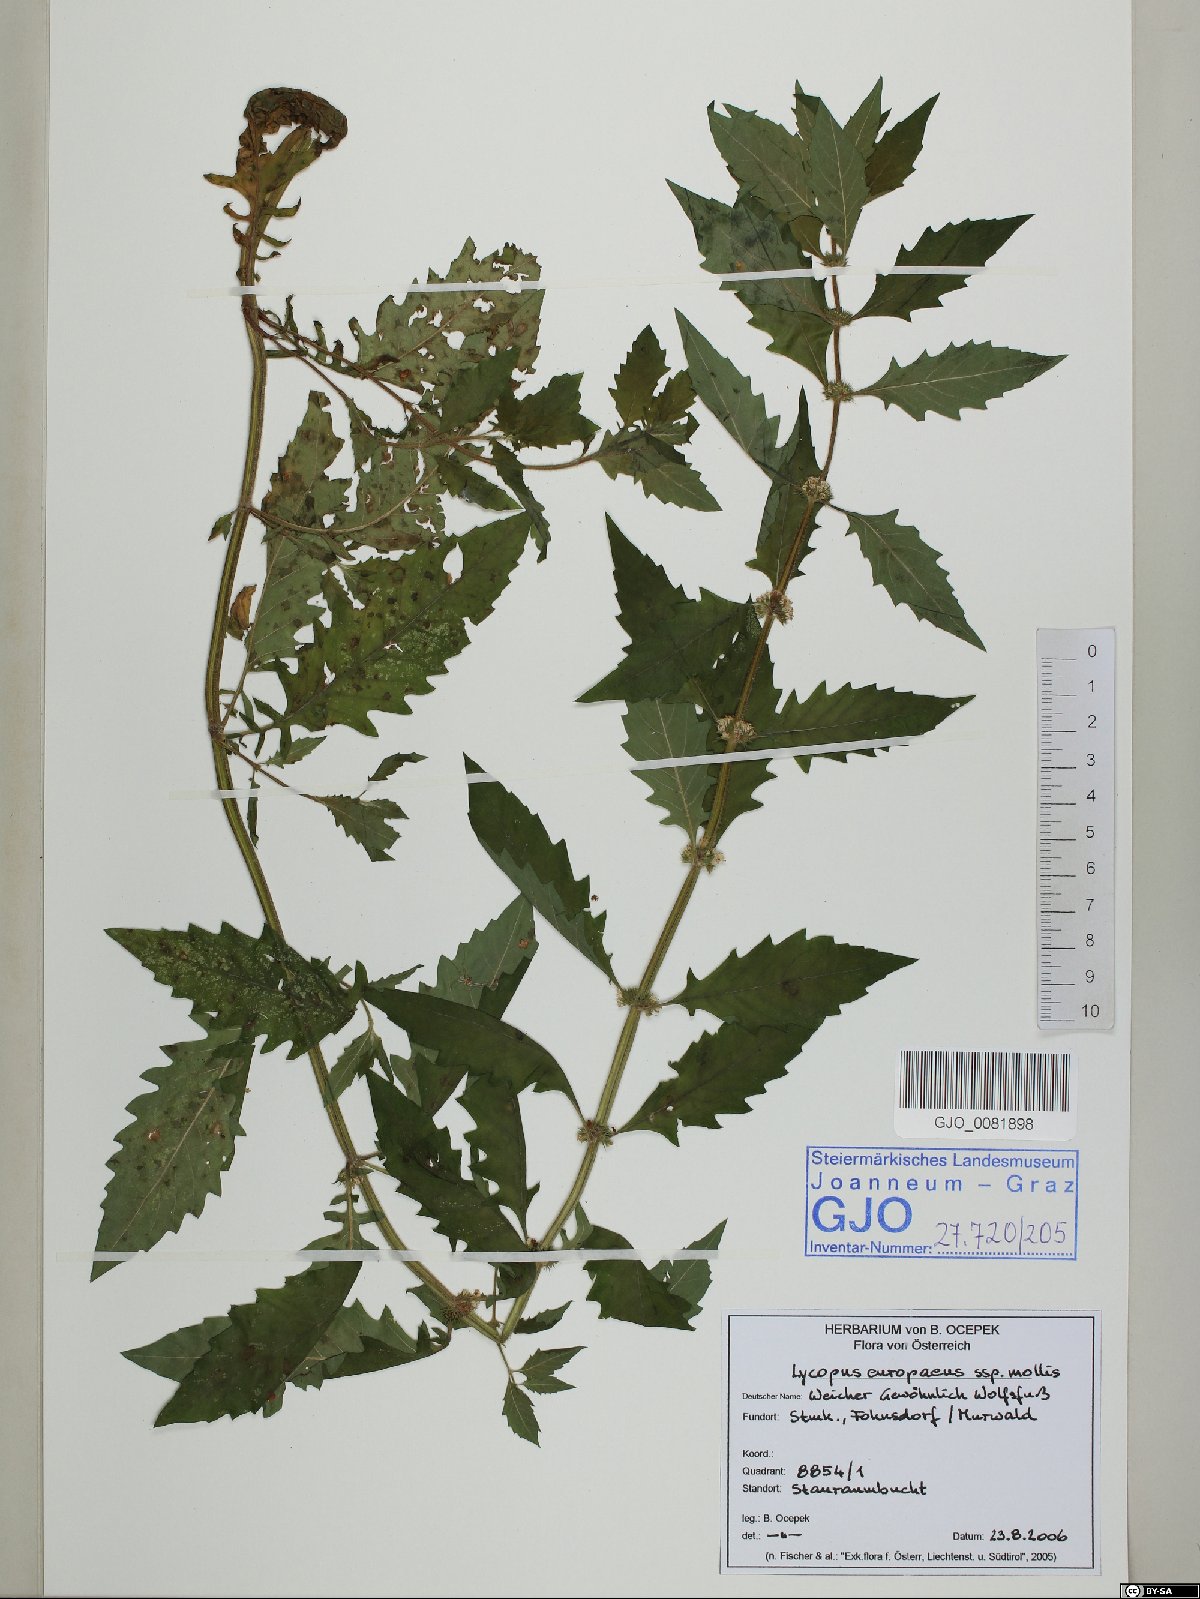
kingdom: Plantae
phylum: Tracheophyta
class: Magnoliopsida
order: Lamiales
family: Lamiaceae
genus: Lycopus
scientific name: Lycopus europaeus
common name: European bugleweed
